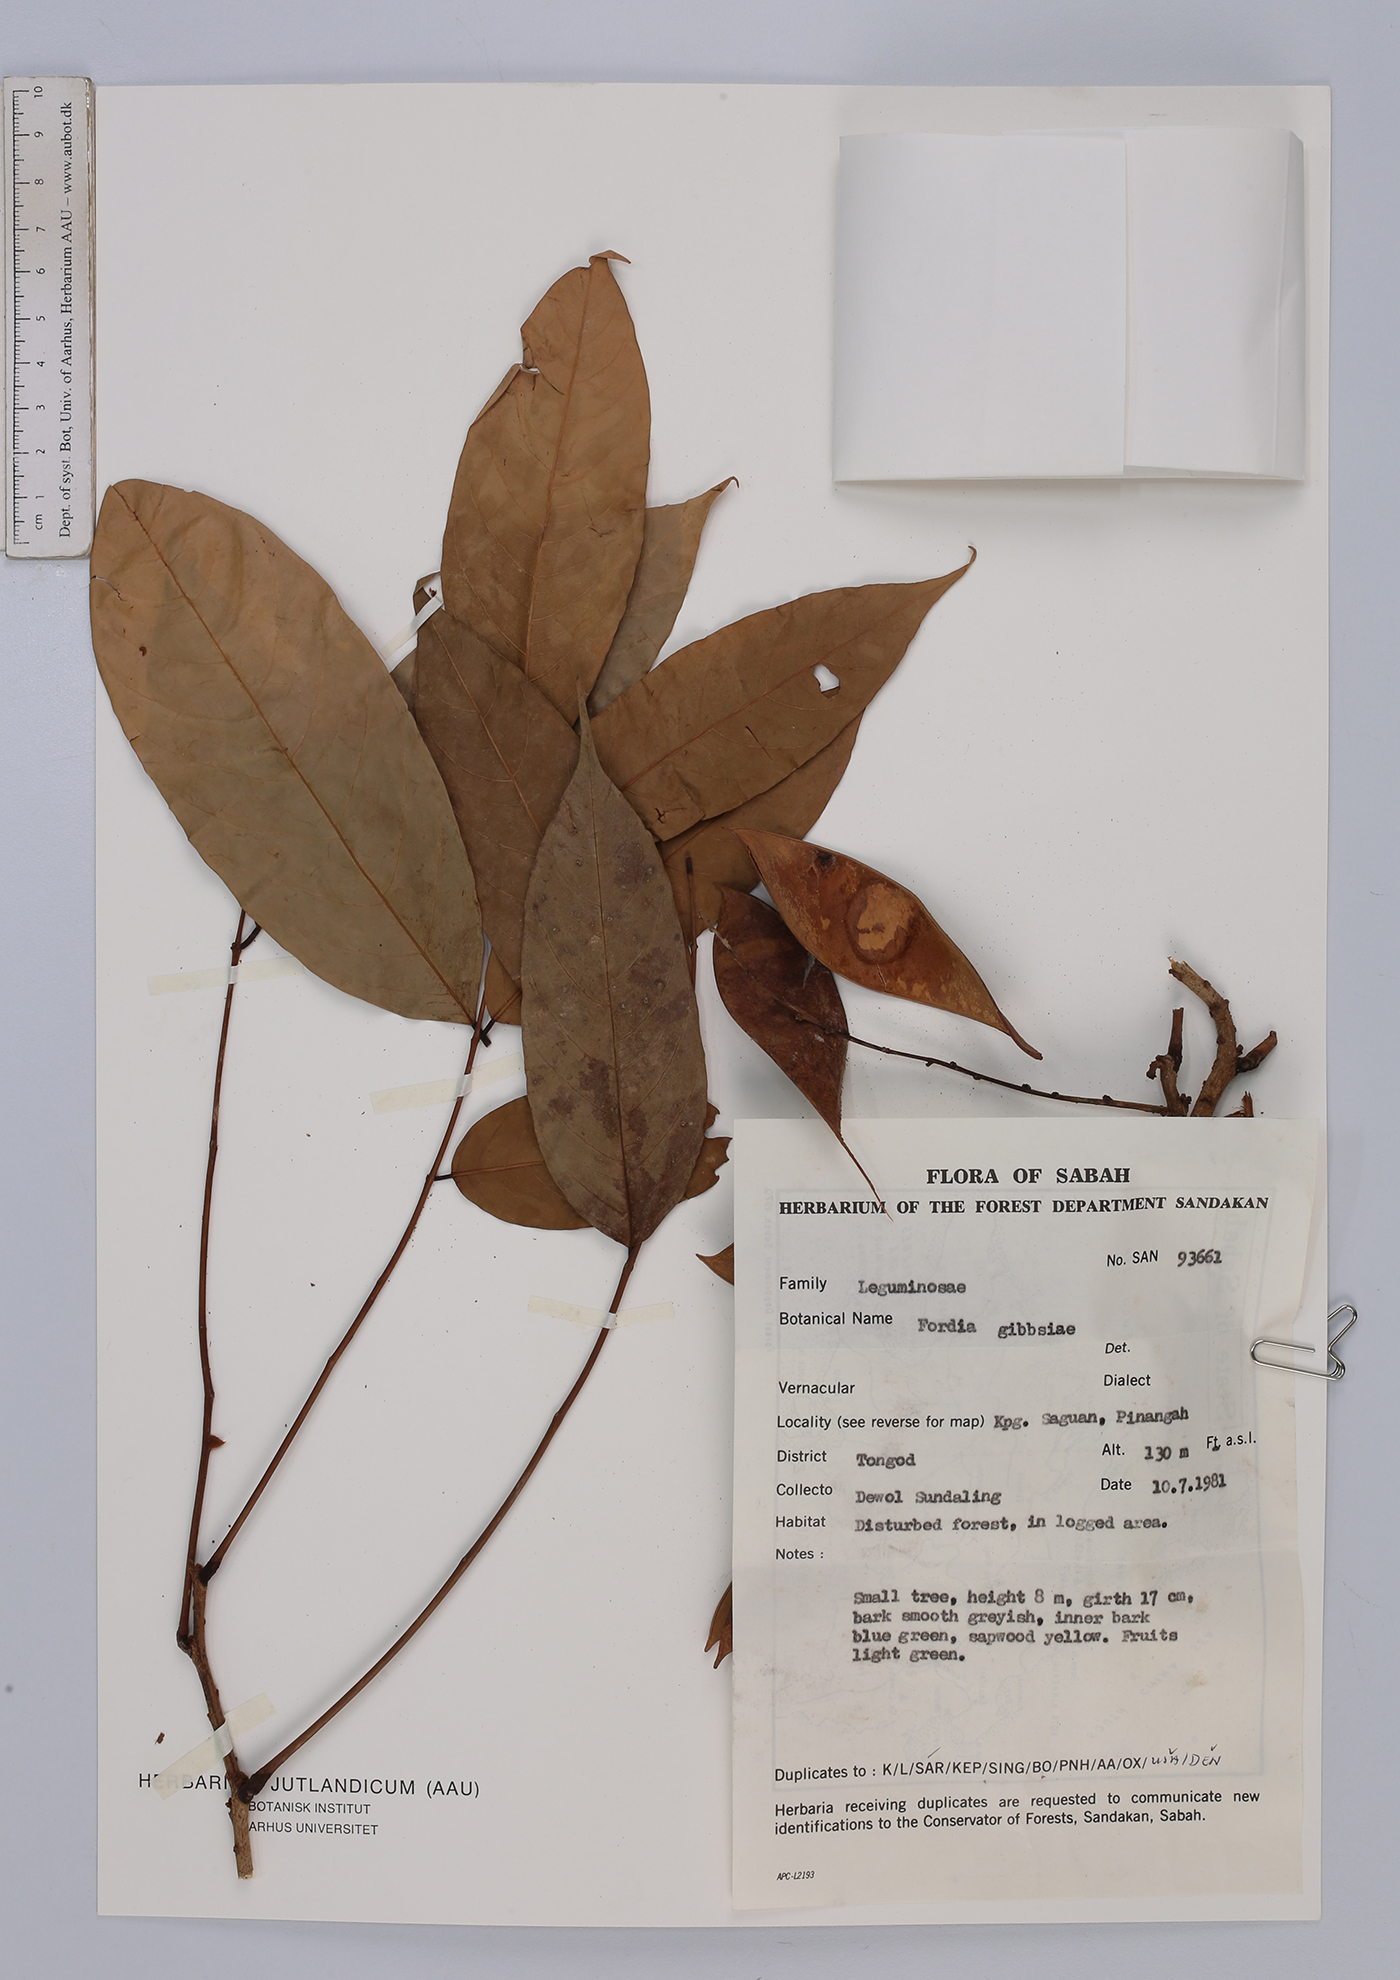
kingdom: Plantae
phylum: Tracheophyta
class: Magnoliopsida
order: Fabales
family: Fabaceae
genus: Fordia
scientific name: Fordia splendidissima
